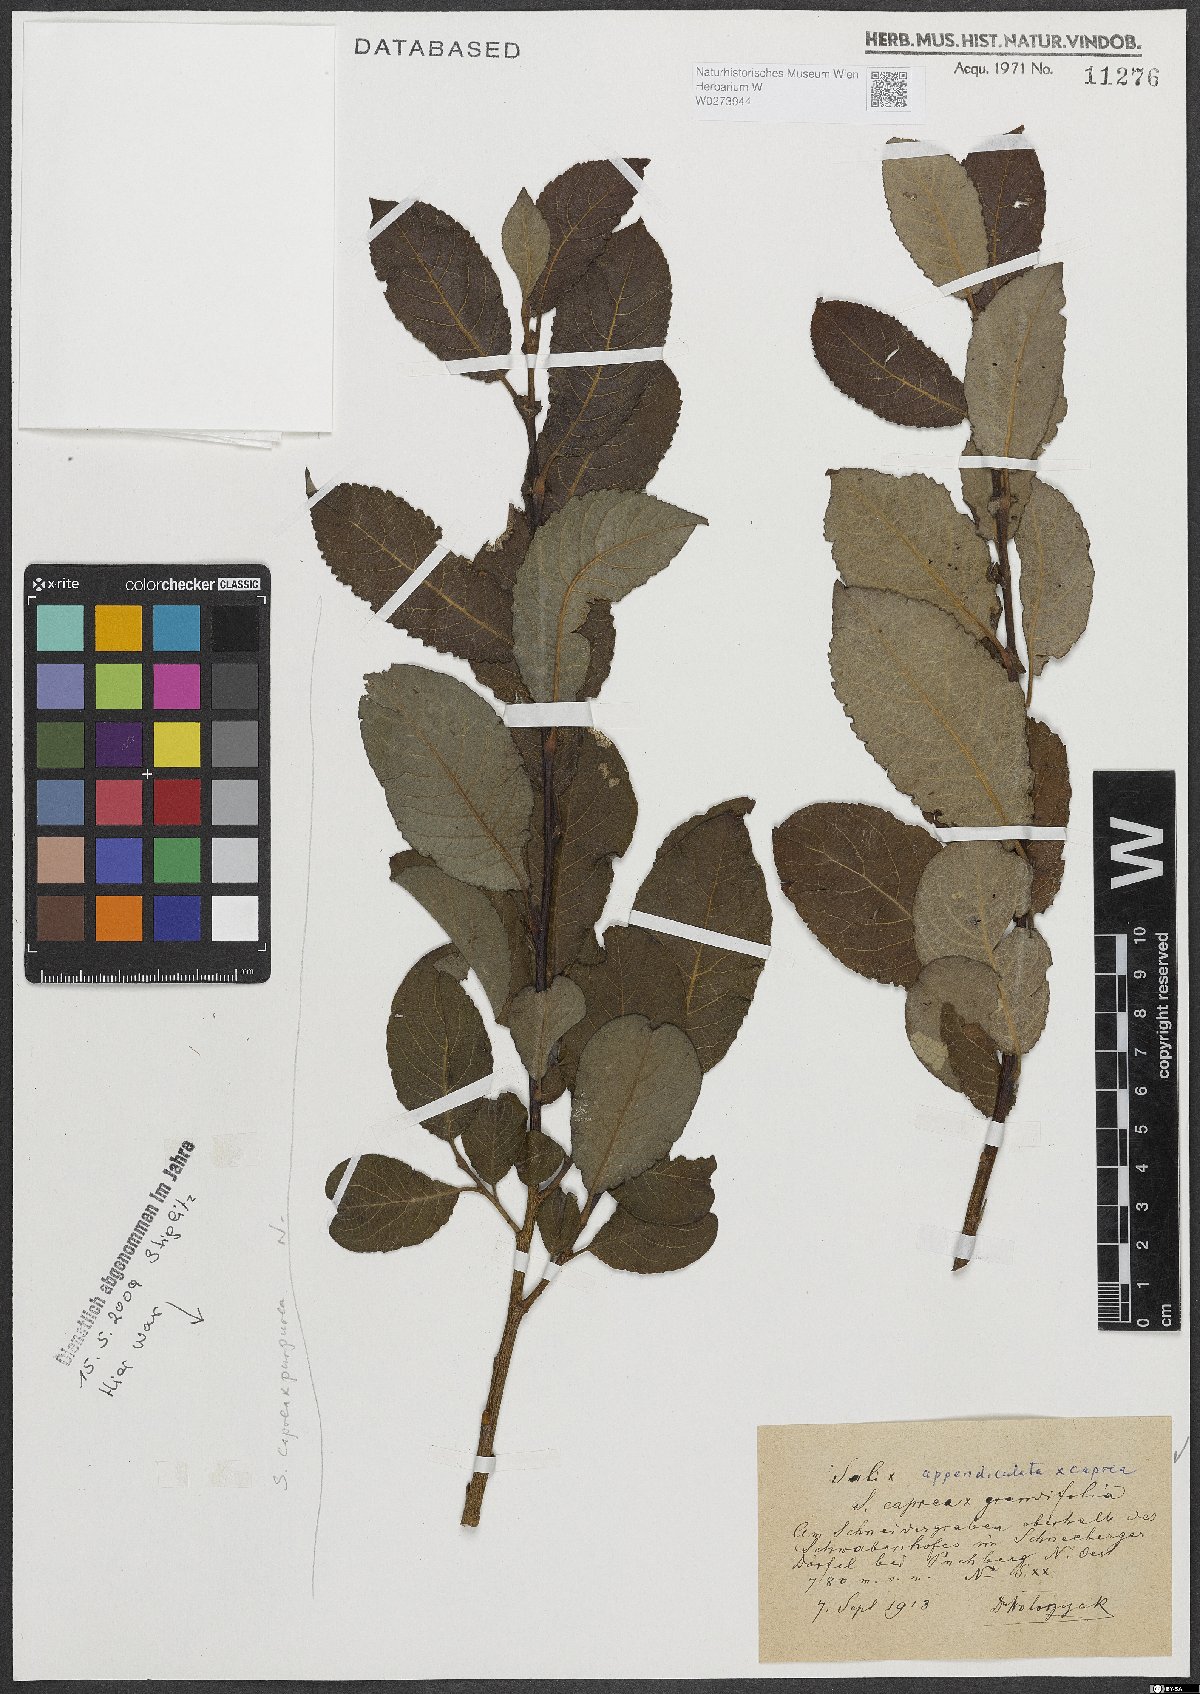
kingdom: Plantae
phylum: Tracheophyta
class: Magnoliopsida
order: Malpighiales
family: Salicaceae
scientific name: Salicaceae
